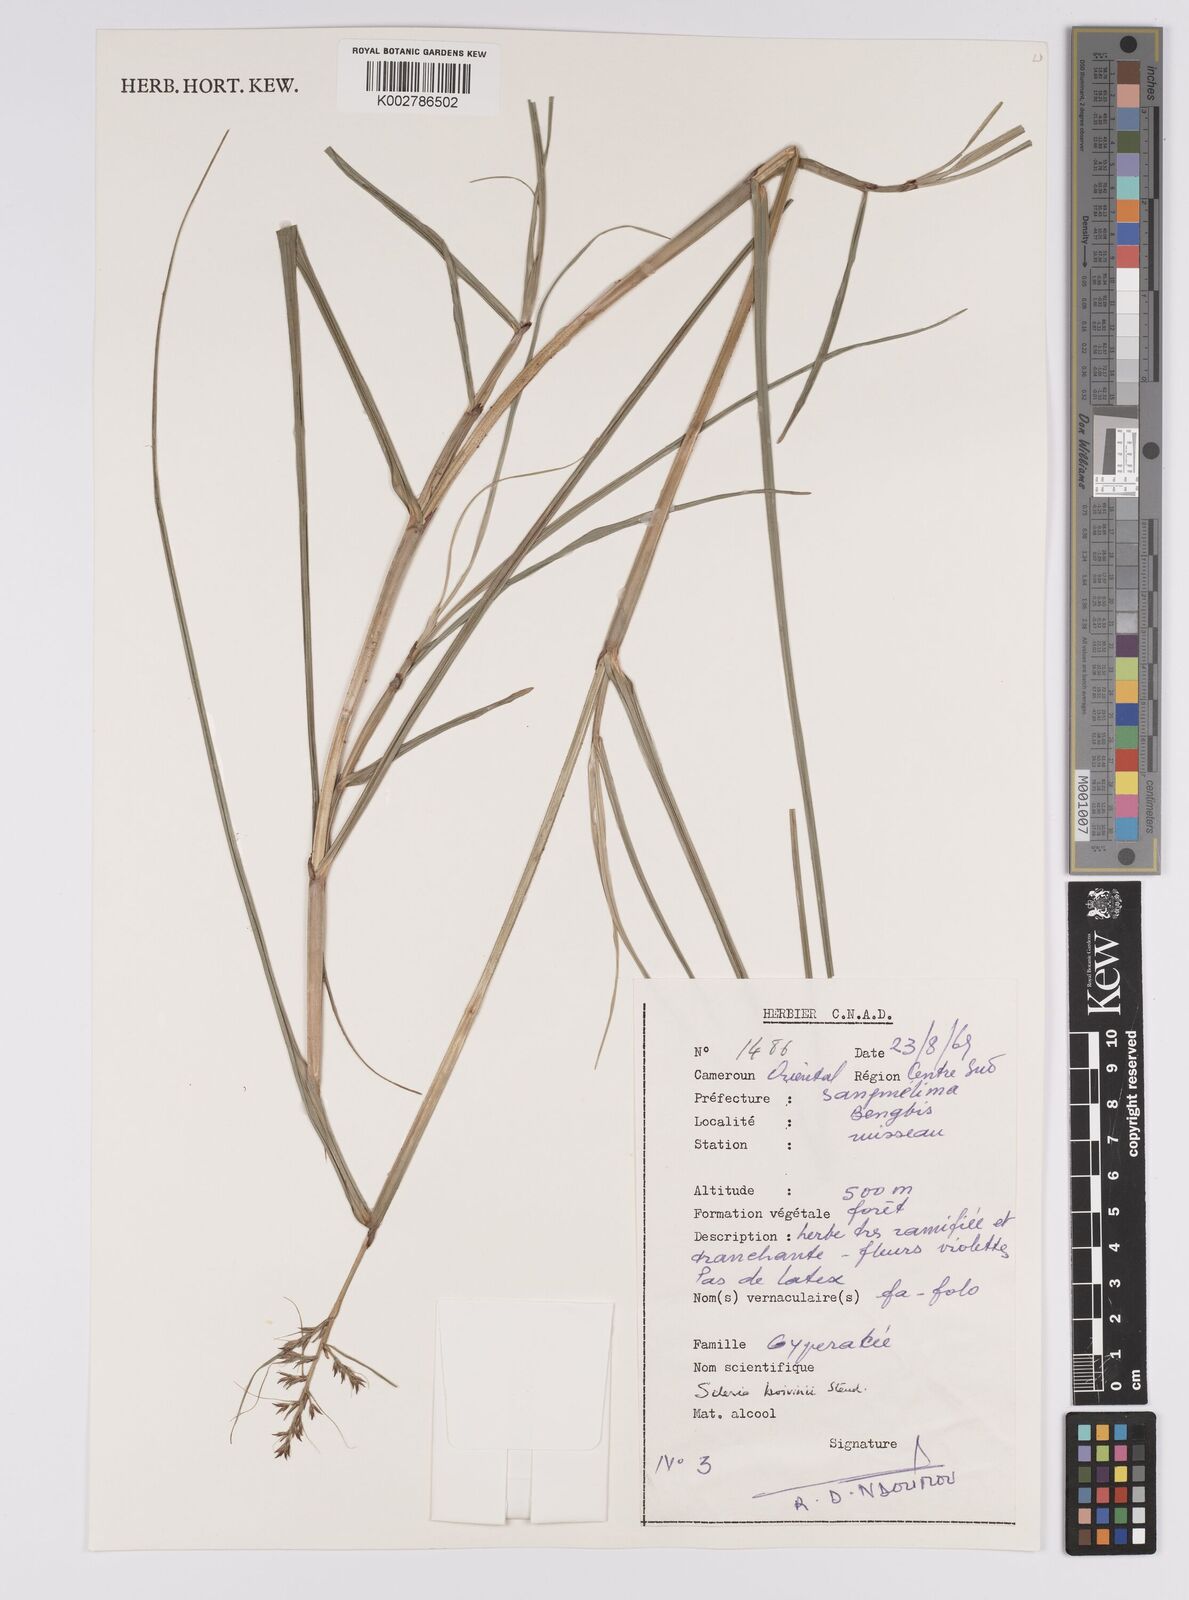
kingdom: Plantae
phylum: Tracheophyta
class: Liliopsida
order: Poales
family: Cyperaceae
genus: Scleria
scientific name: Scleria boivinii
